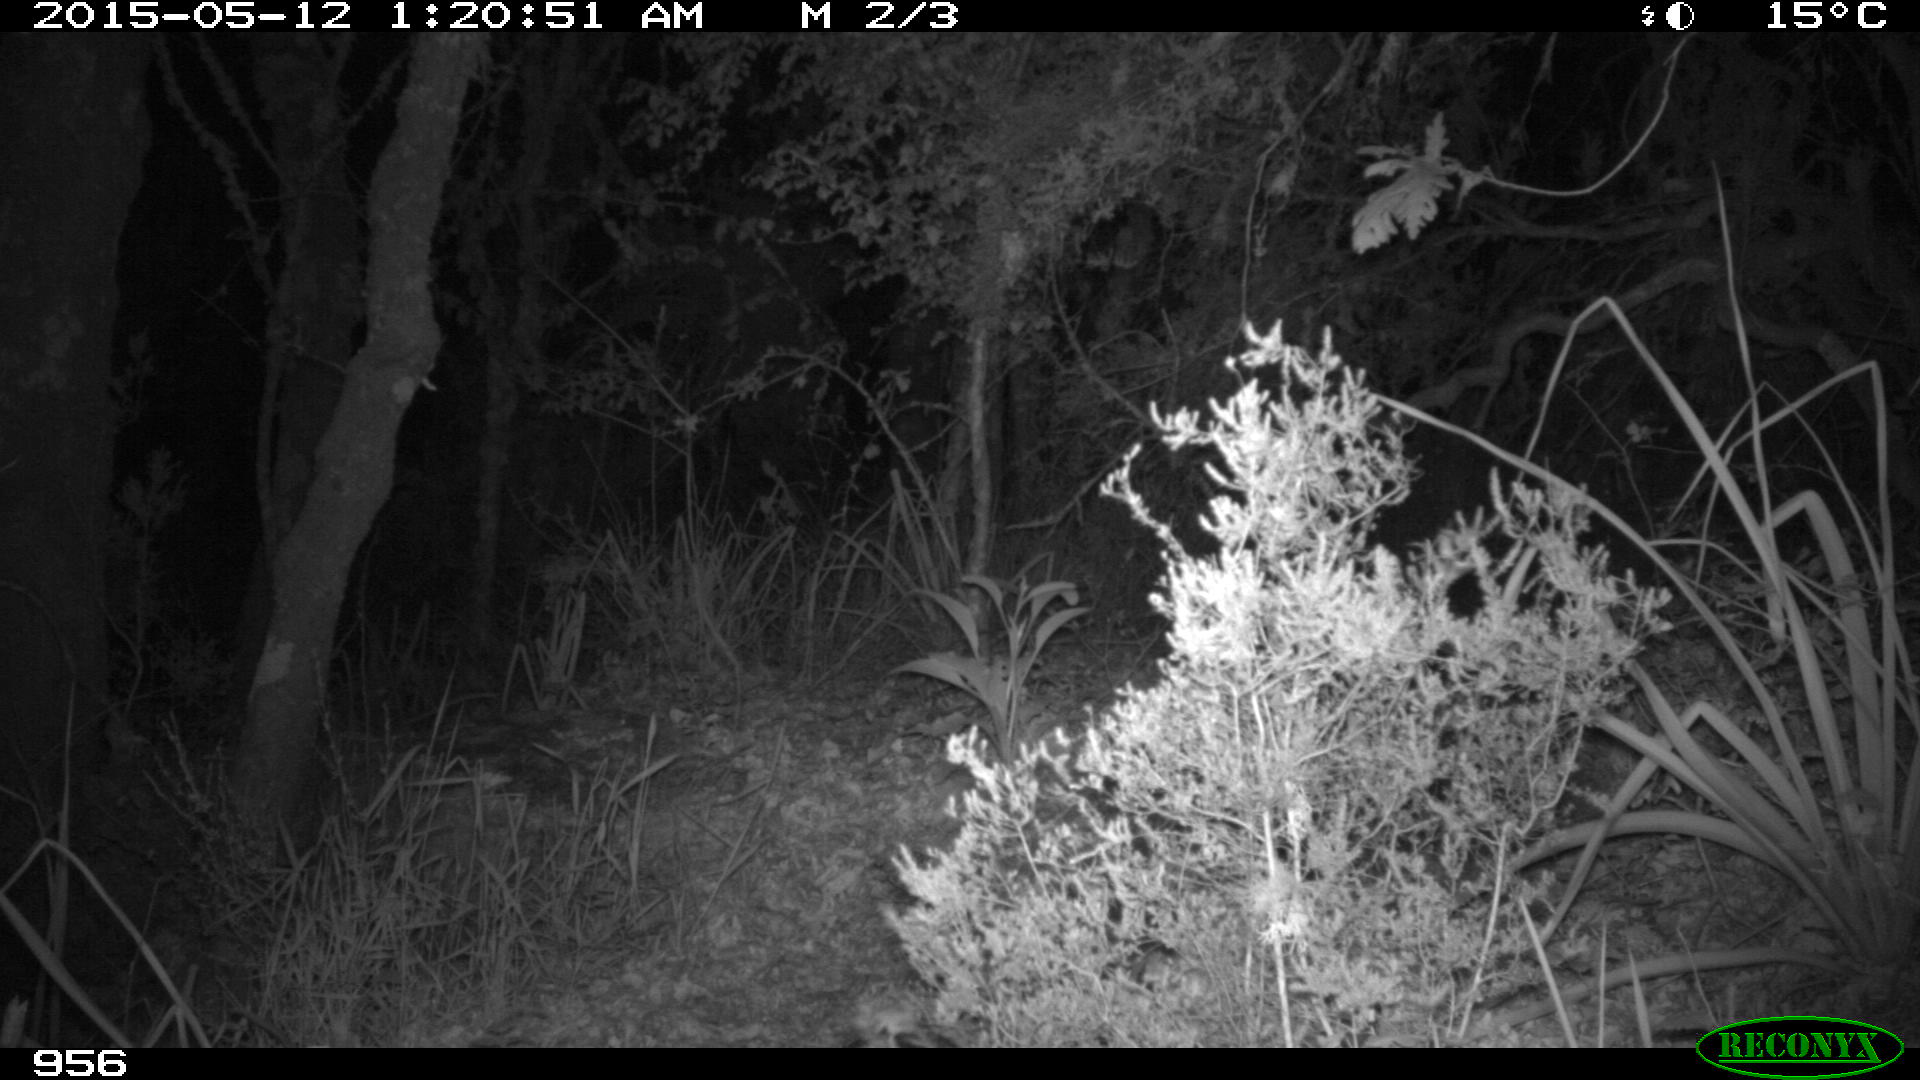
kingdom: Animalia
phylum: Chordata
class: Mammalia
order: Artiodactyla
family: Cervidae
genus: Capreolus
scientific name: Capreolus capreolus
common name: Western roe deer
